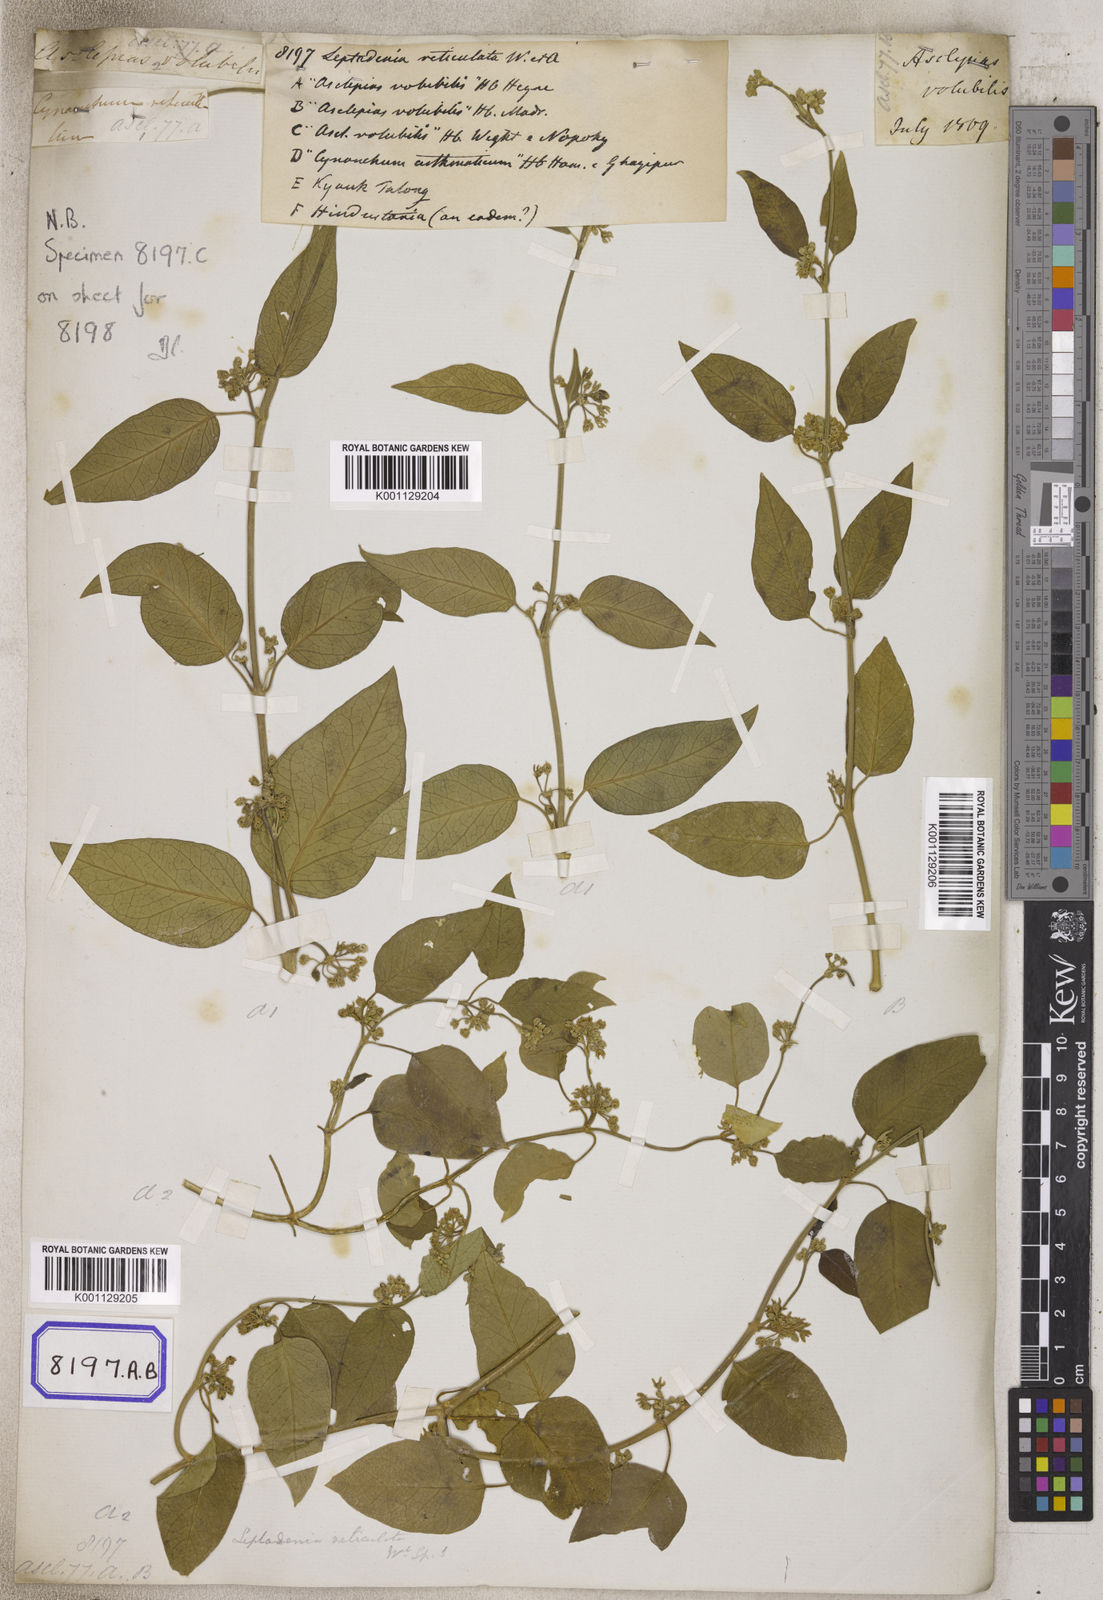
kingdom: Plantae
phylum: Tracheophyta
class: Magnoliopsida
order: Gentianales
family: Apocynaceae
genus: Leptadenia
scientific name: Leptadenia reticulata
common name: Leptadenia
